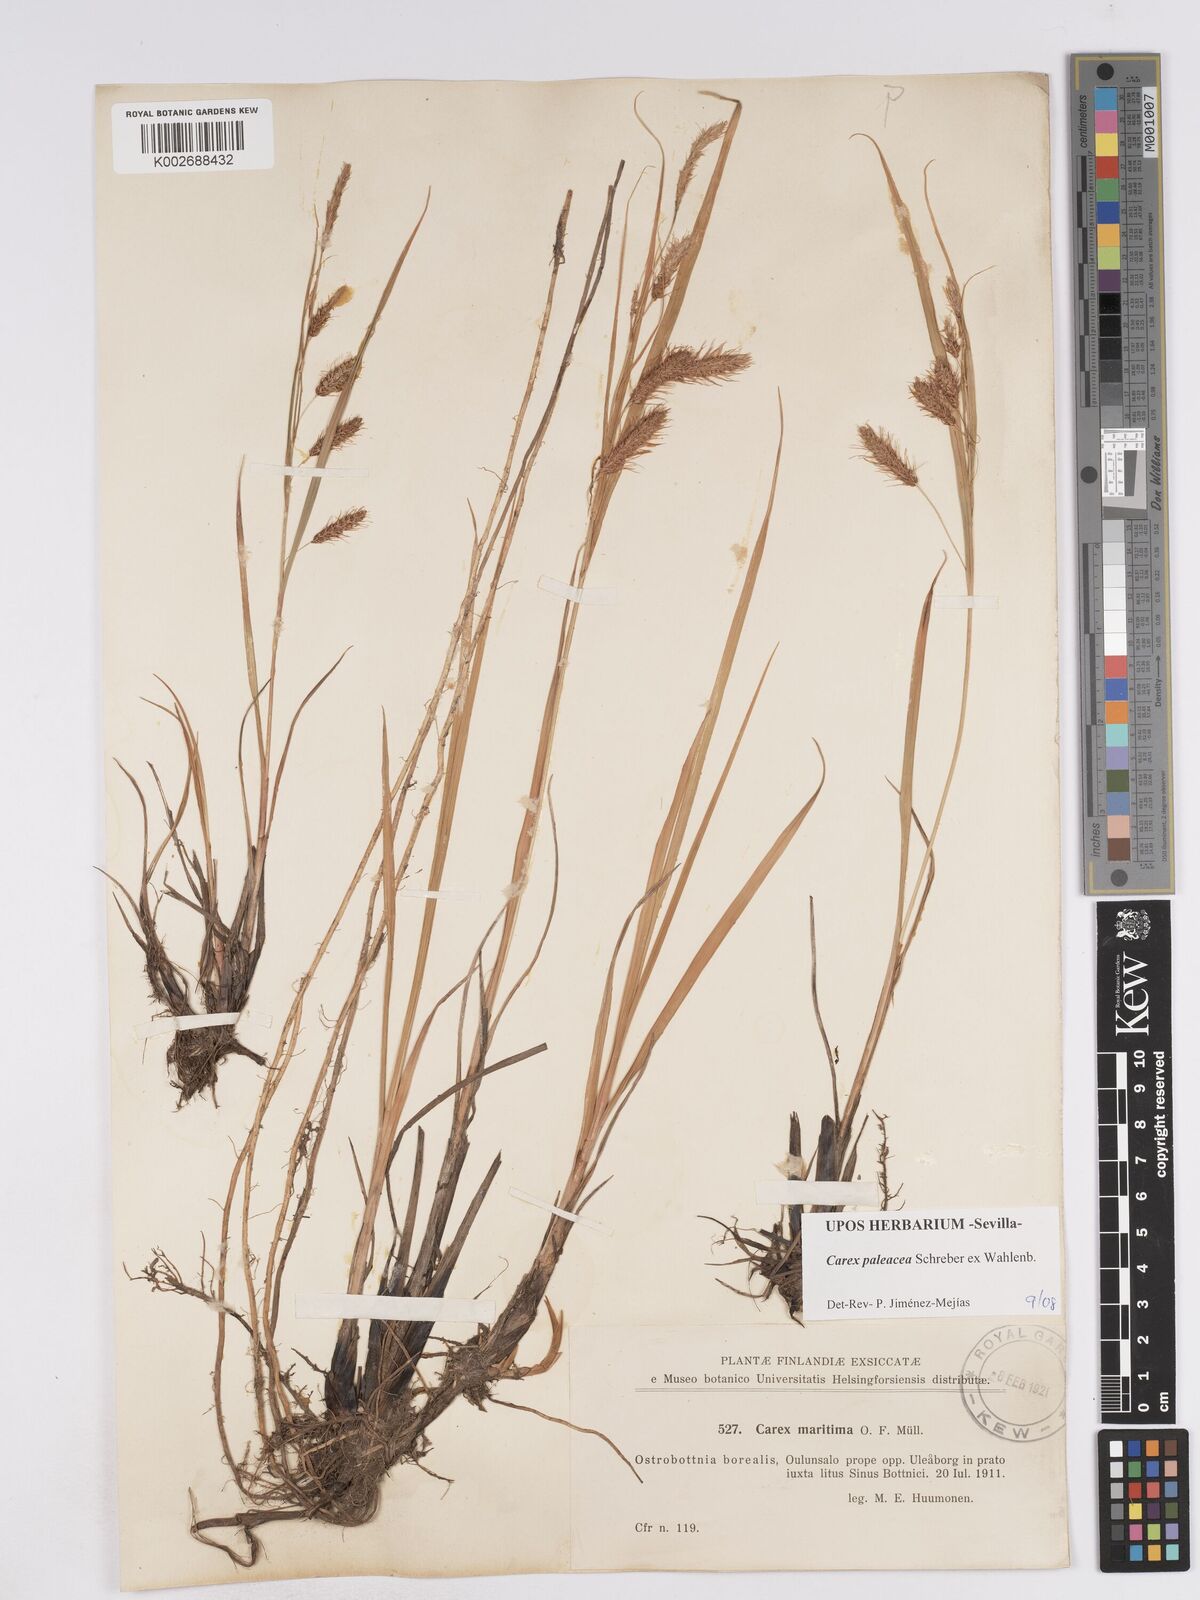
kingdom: Plantae
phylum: Tracheophyta
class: Liliopsida
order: Poales
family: Cyperaceae
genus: Carex
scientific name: Carex paleacea
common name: Chaffy sedge
